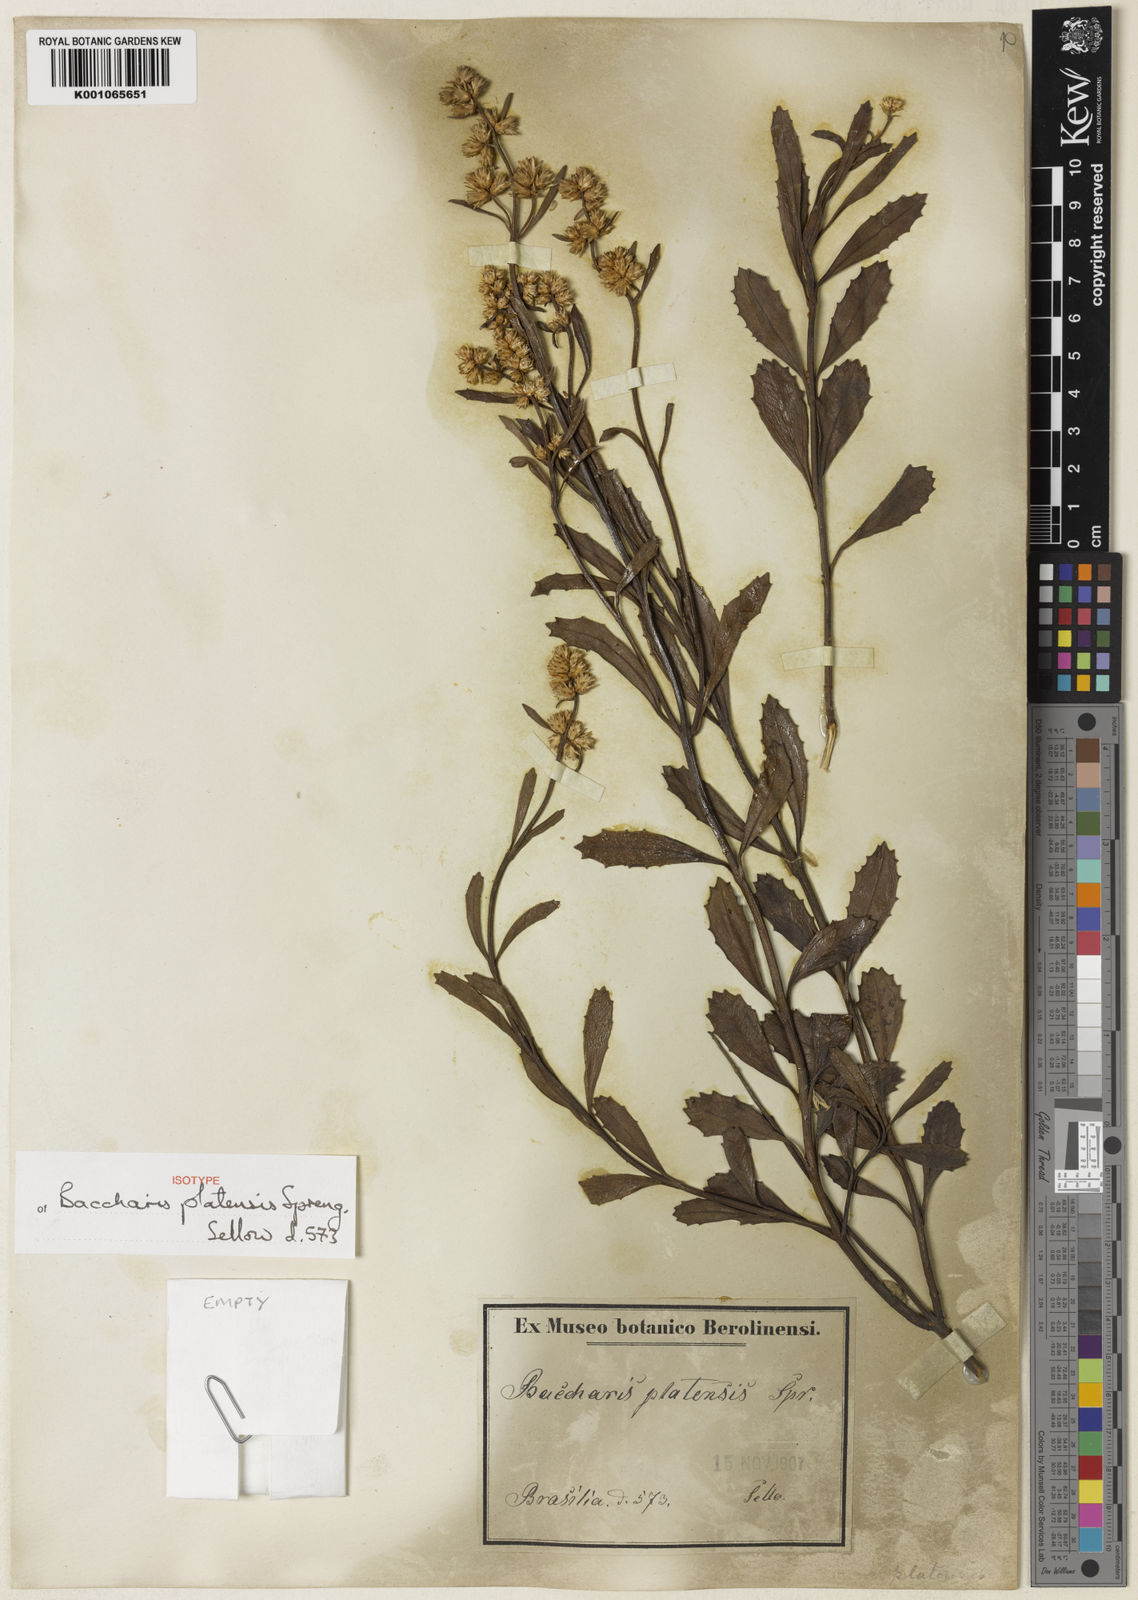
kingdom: Plantae
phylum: Tracheophyta
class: Magnoliopsida
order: Asterales
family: Asteraceae
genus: Baccharis
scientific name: Baccharis spicata
